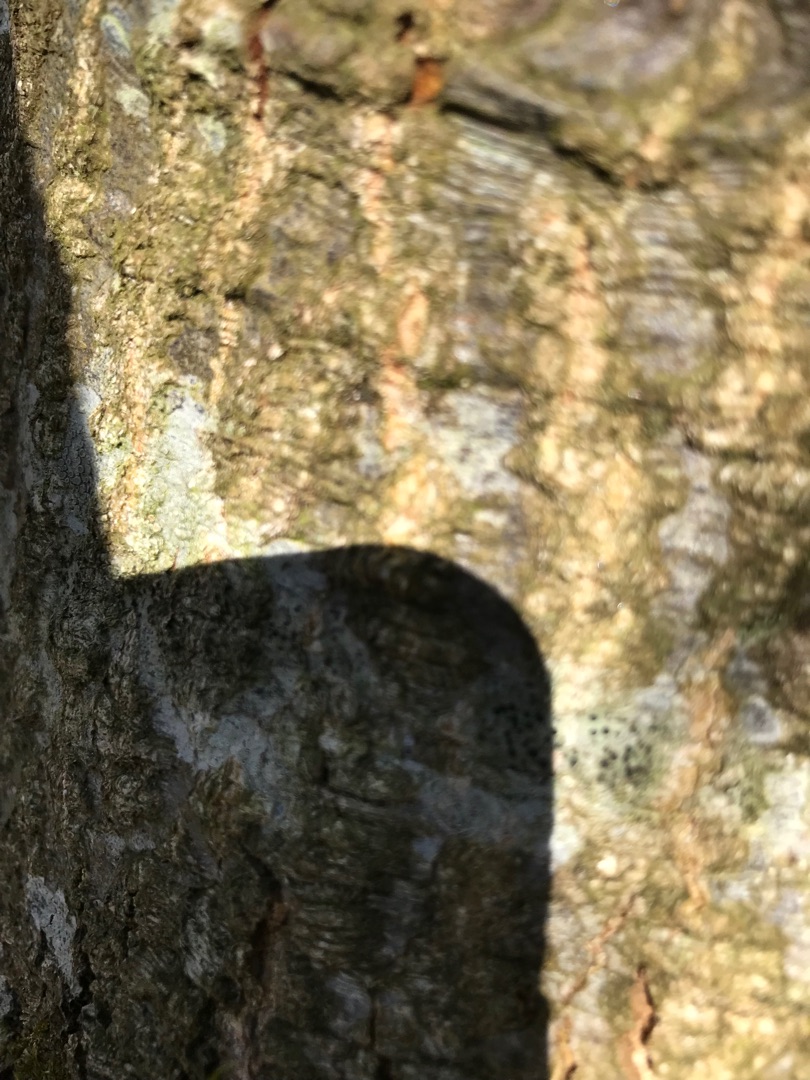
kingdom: Fungi
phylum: Ascomycota
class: Lecanoromycetes
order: Lecanorales
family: Lecanoraceae
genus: Lecidella
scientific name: Lecidella elaeochroma
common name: Grågrøn skivelav
